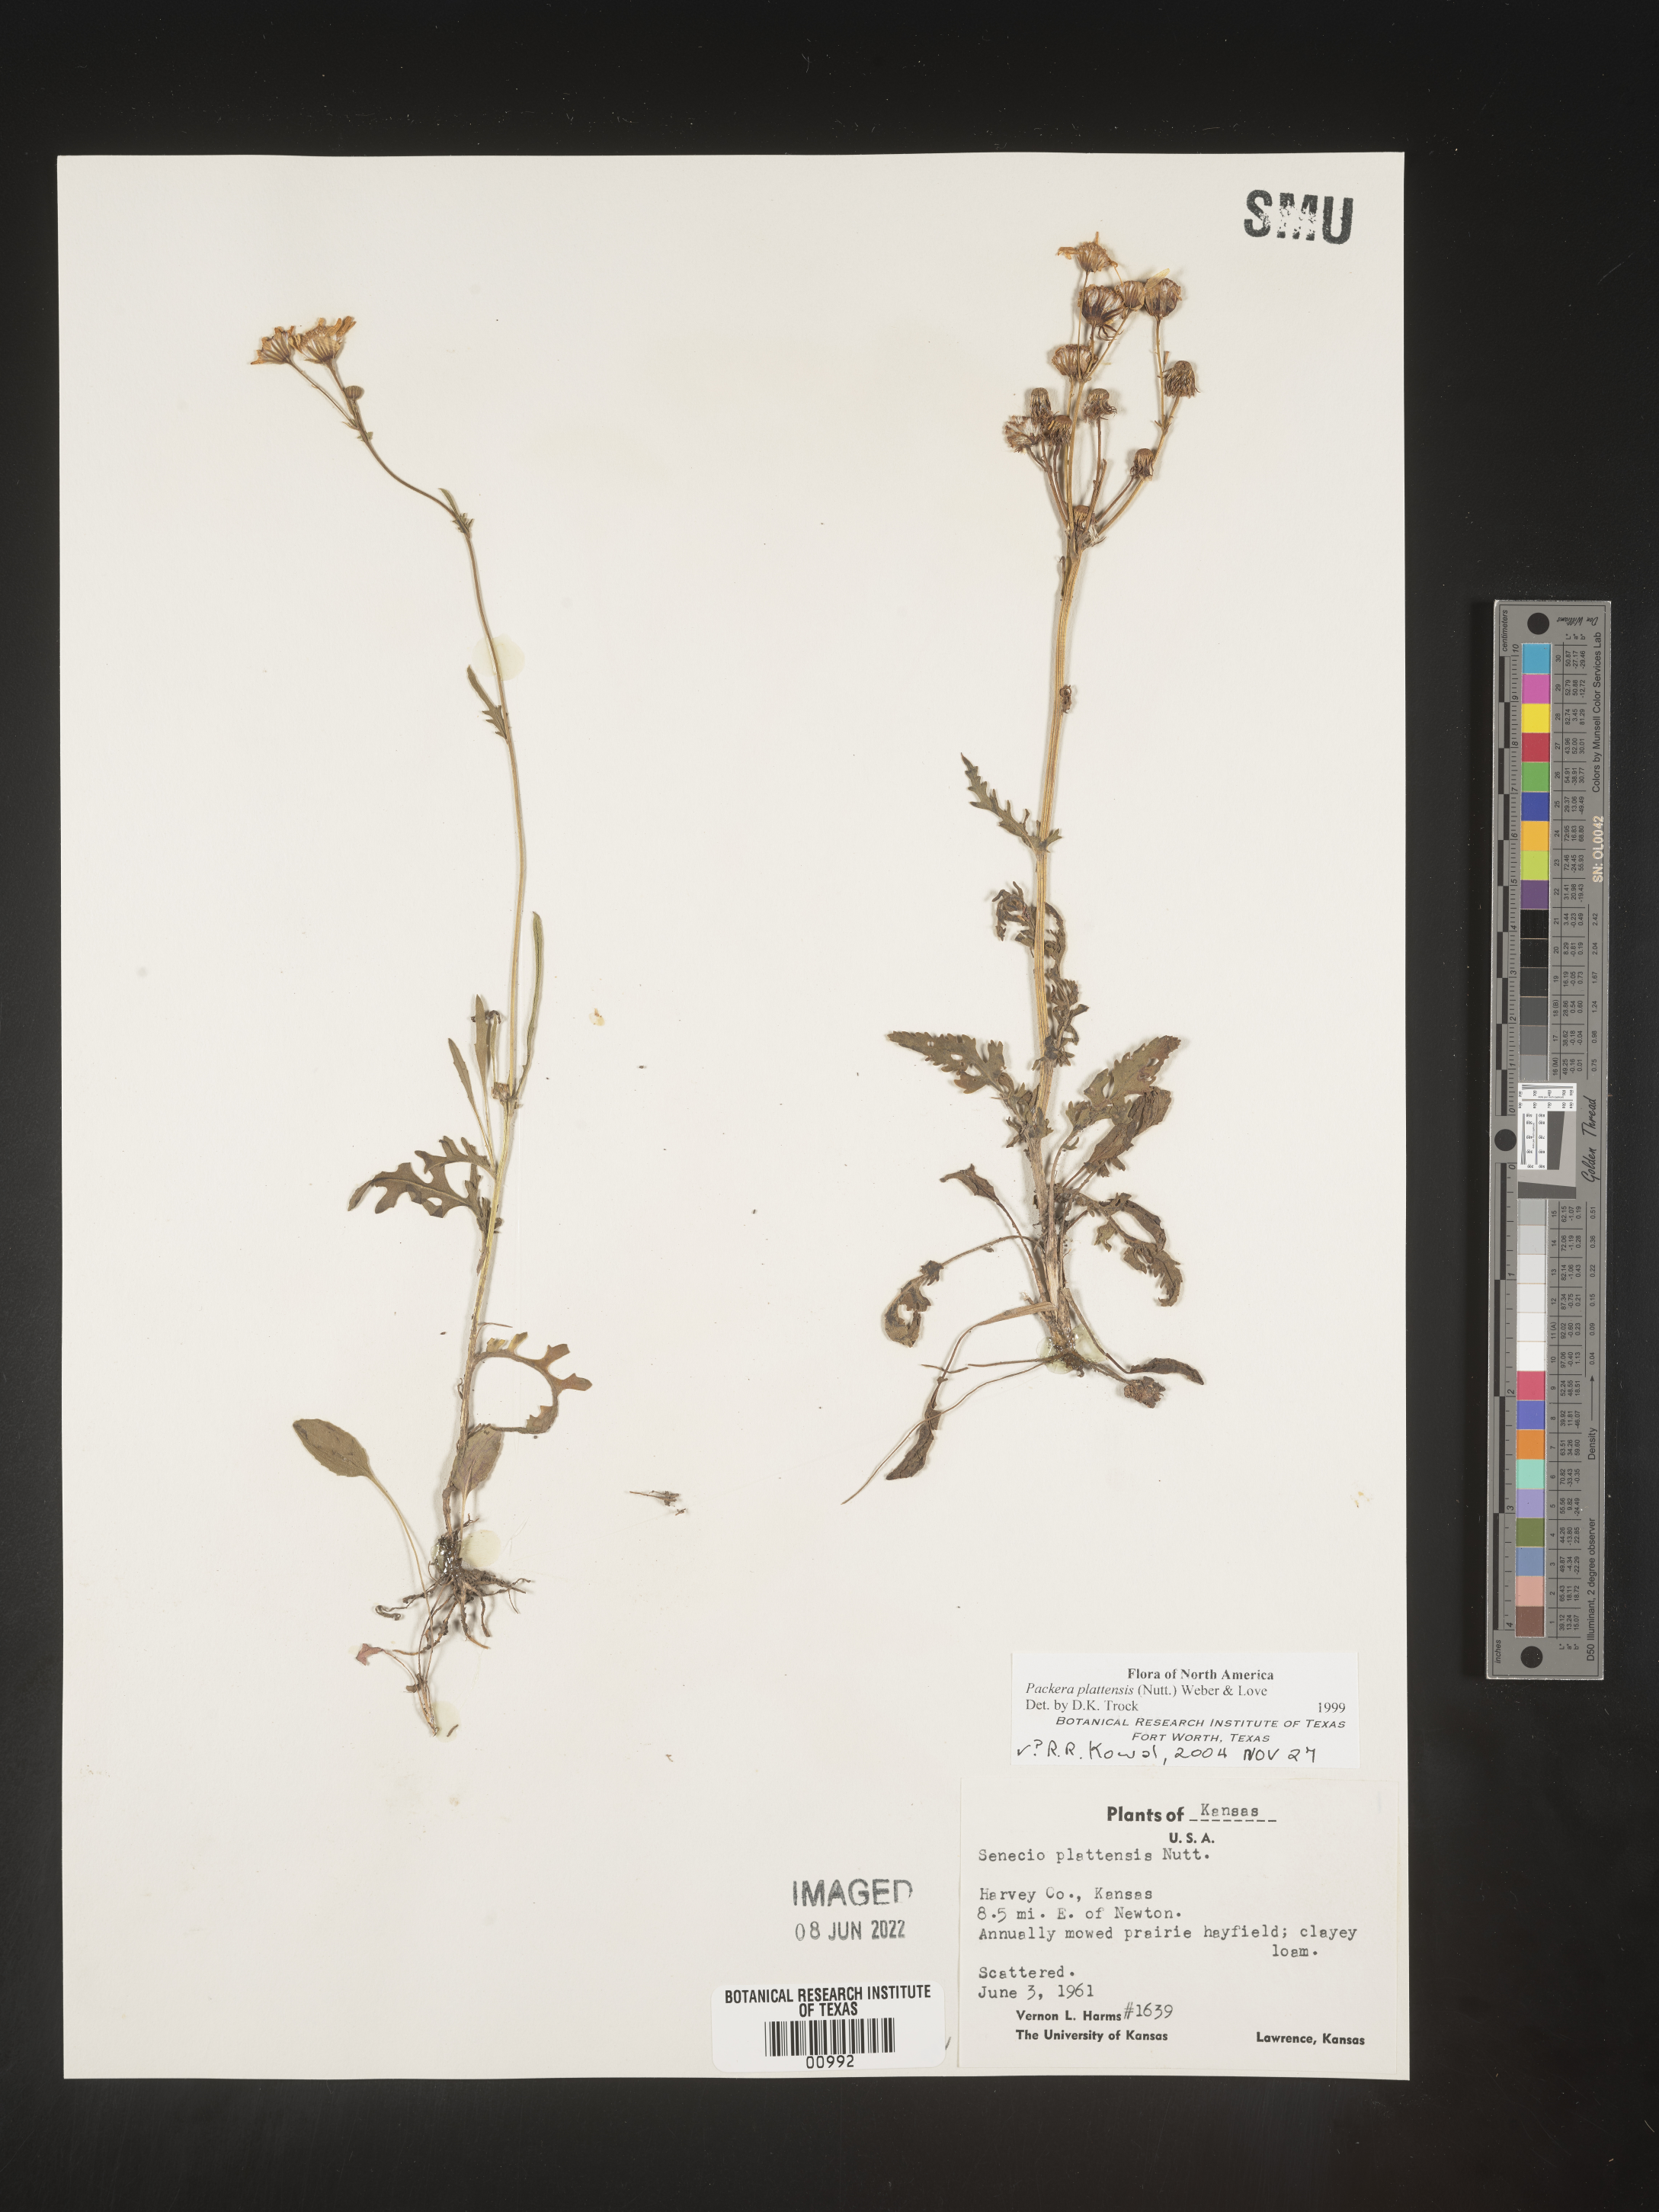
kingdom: Plantae
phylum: Tracheophyta
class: Magnoliopsida
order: Asterales
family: Asteraceae
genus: Packera
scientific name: Packera plattensis
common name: Prairie groundsel
